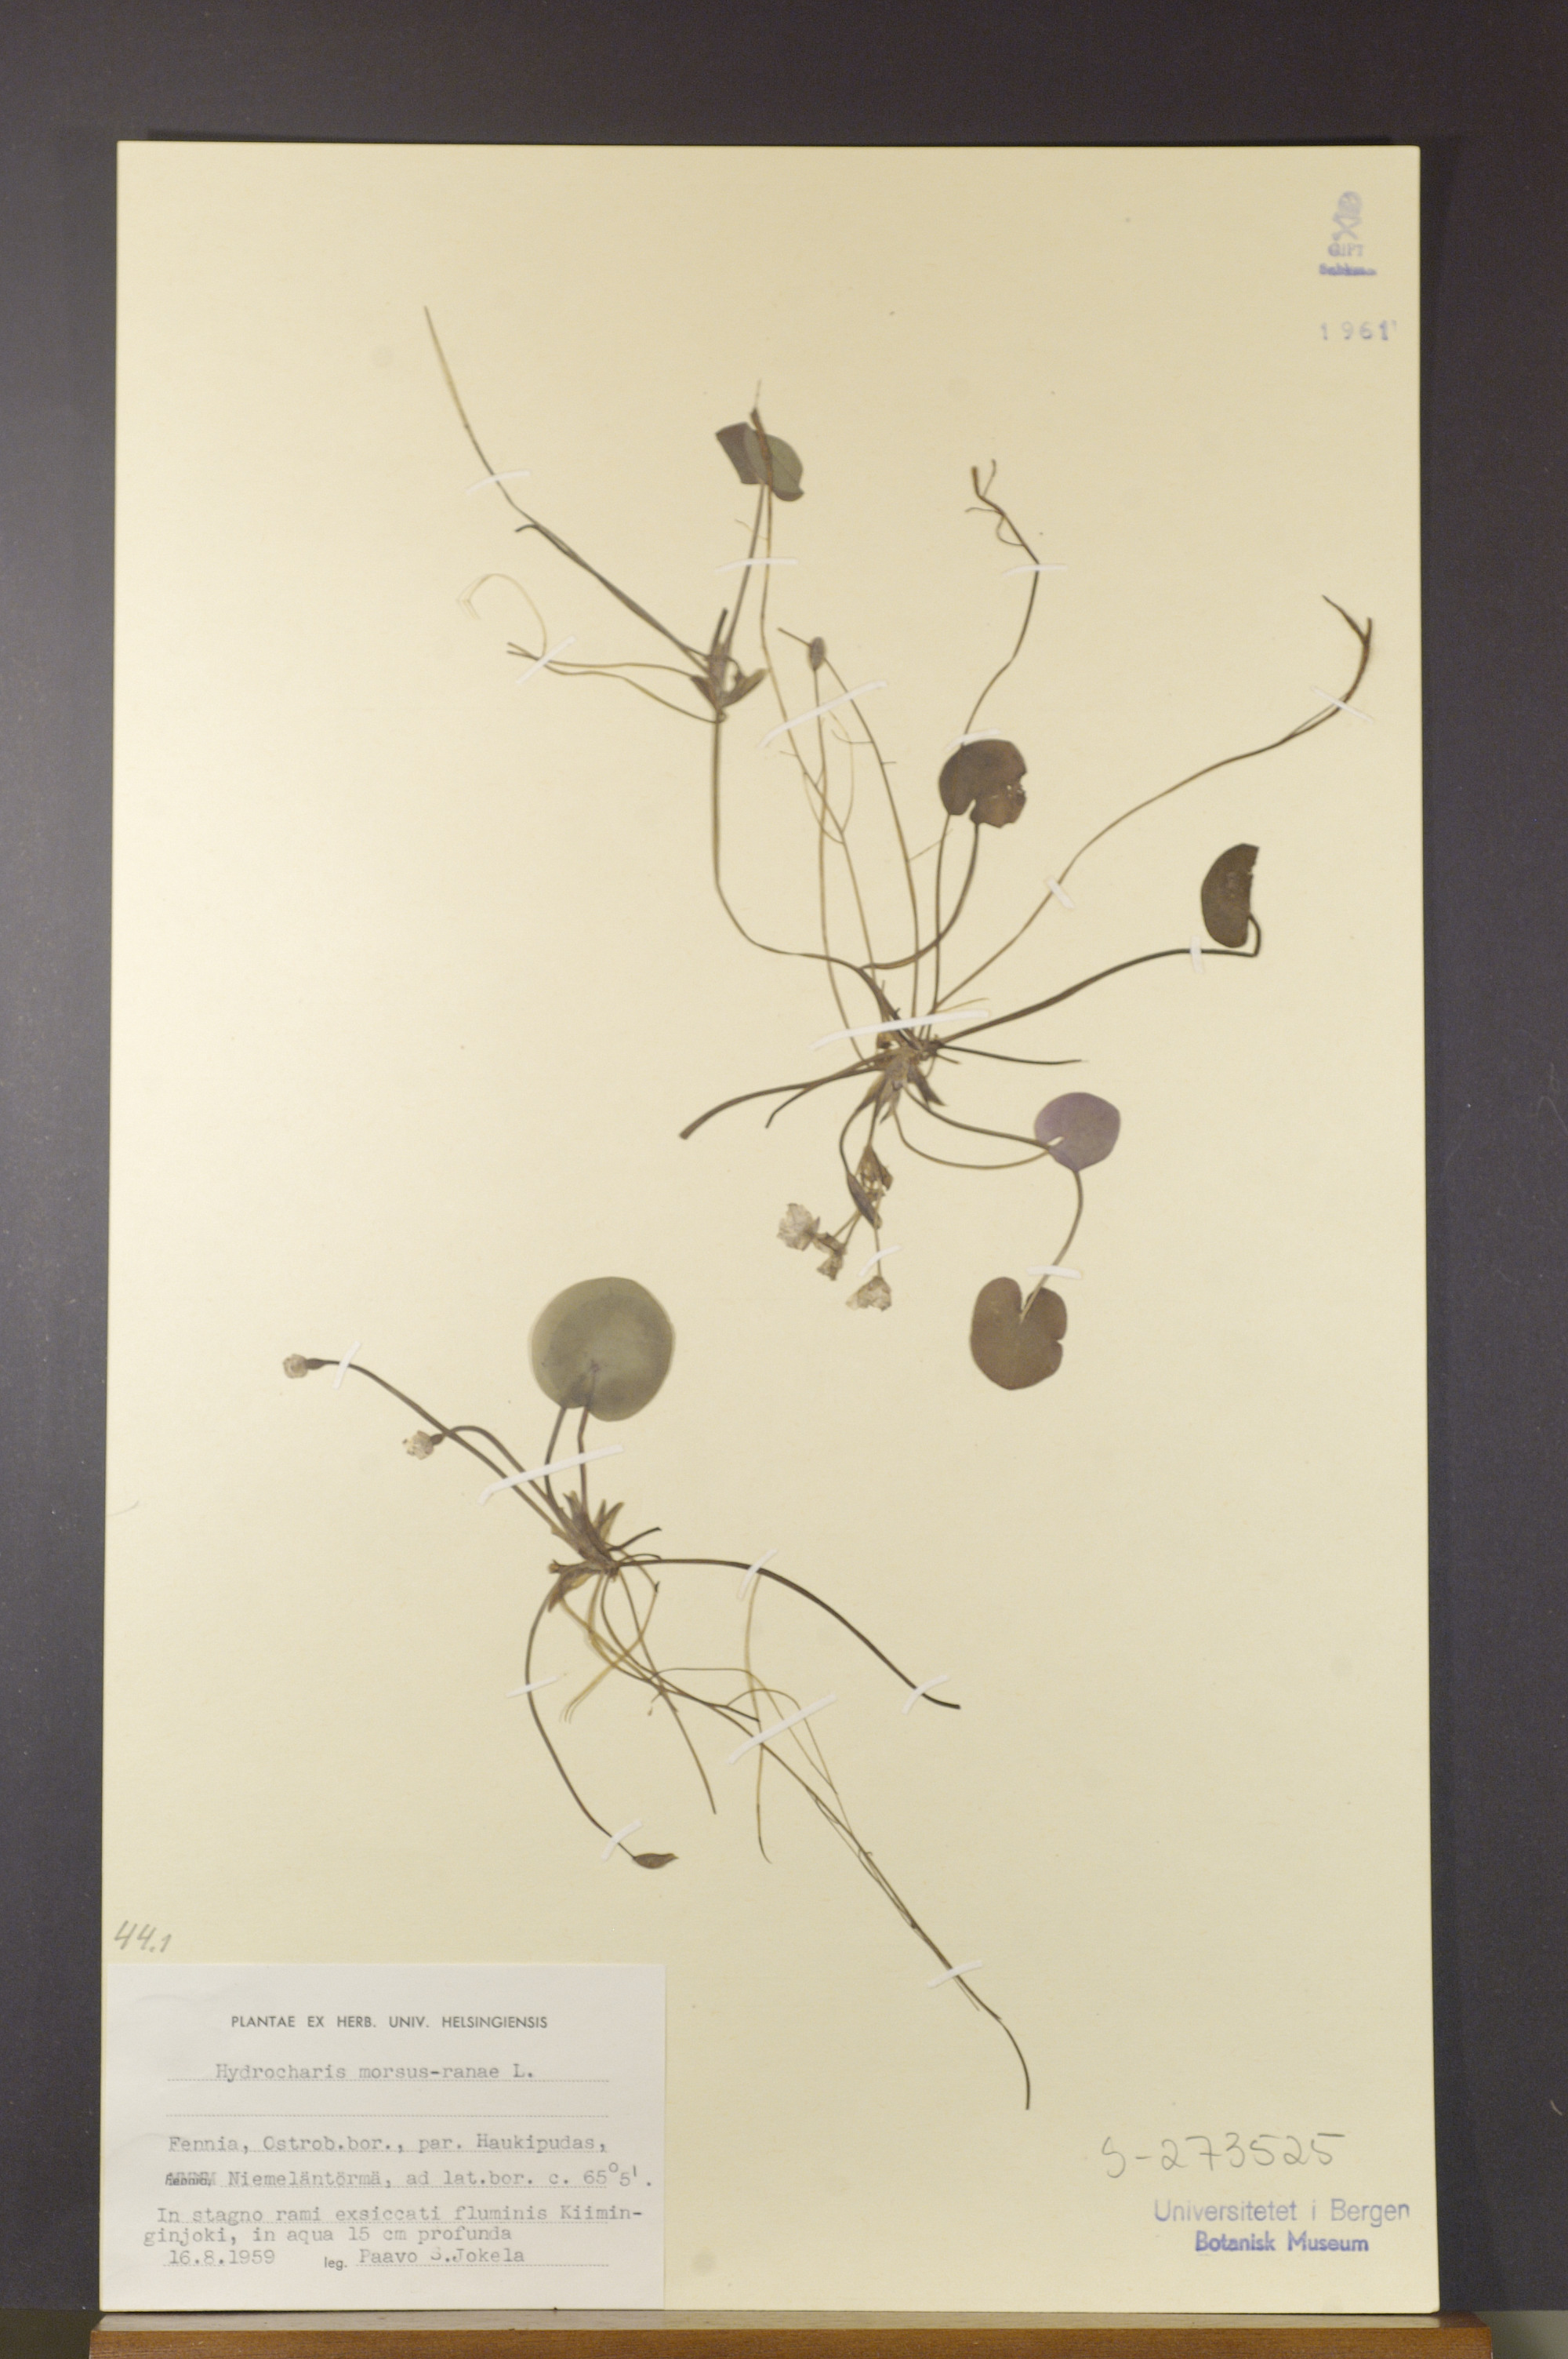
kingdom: Plantae
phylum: Tracheophyta
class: Liliopsida
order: Alismatales
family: Hydrocharitaceae
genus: Hydrocharis
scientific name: Hydrocharis morsus-ranae
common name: Frogbit
